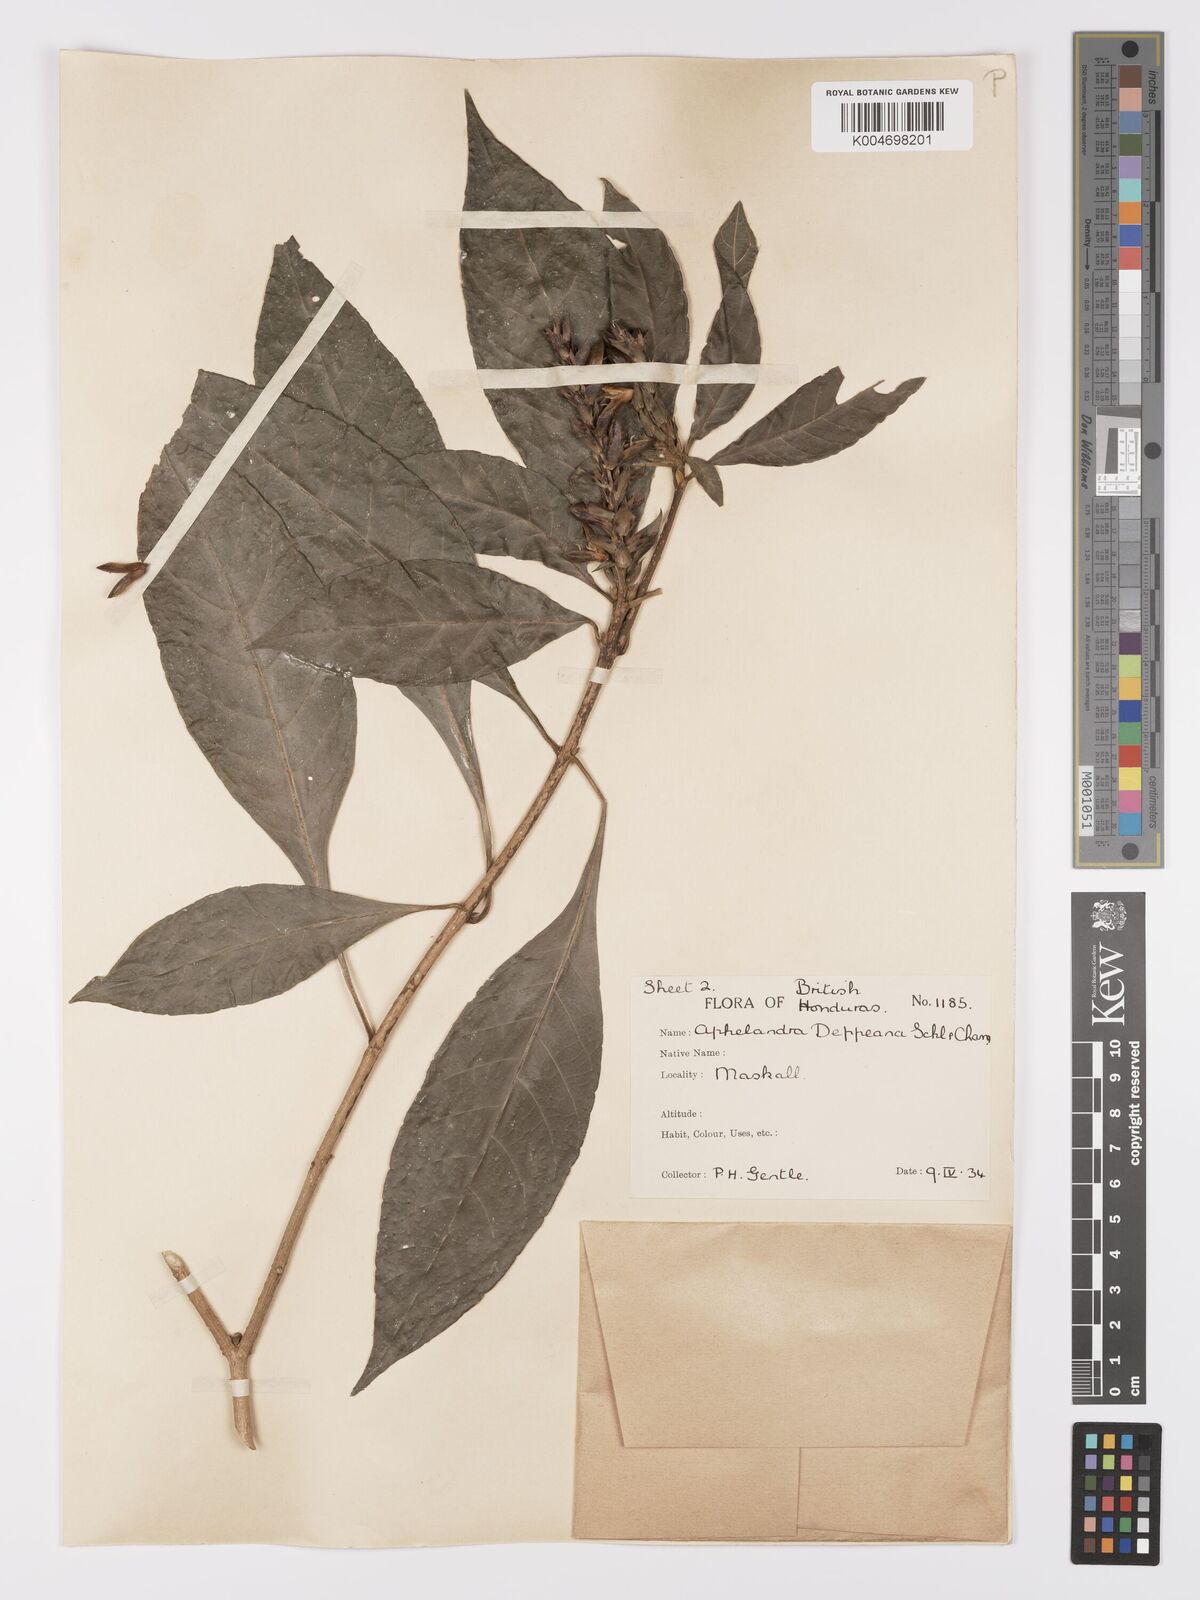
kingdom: Plantae
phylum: Tracheophyta
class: Magnoliopsida
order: Lamiales
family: Acanthaceae
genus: Aphelandra
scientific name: Aphelandra scabra
